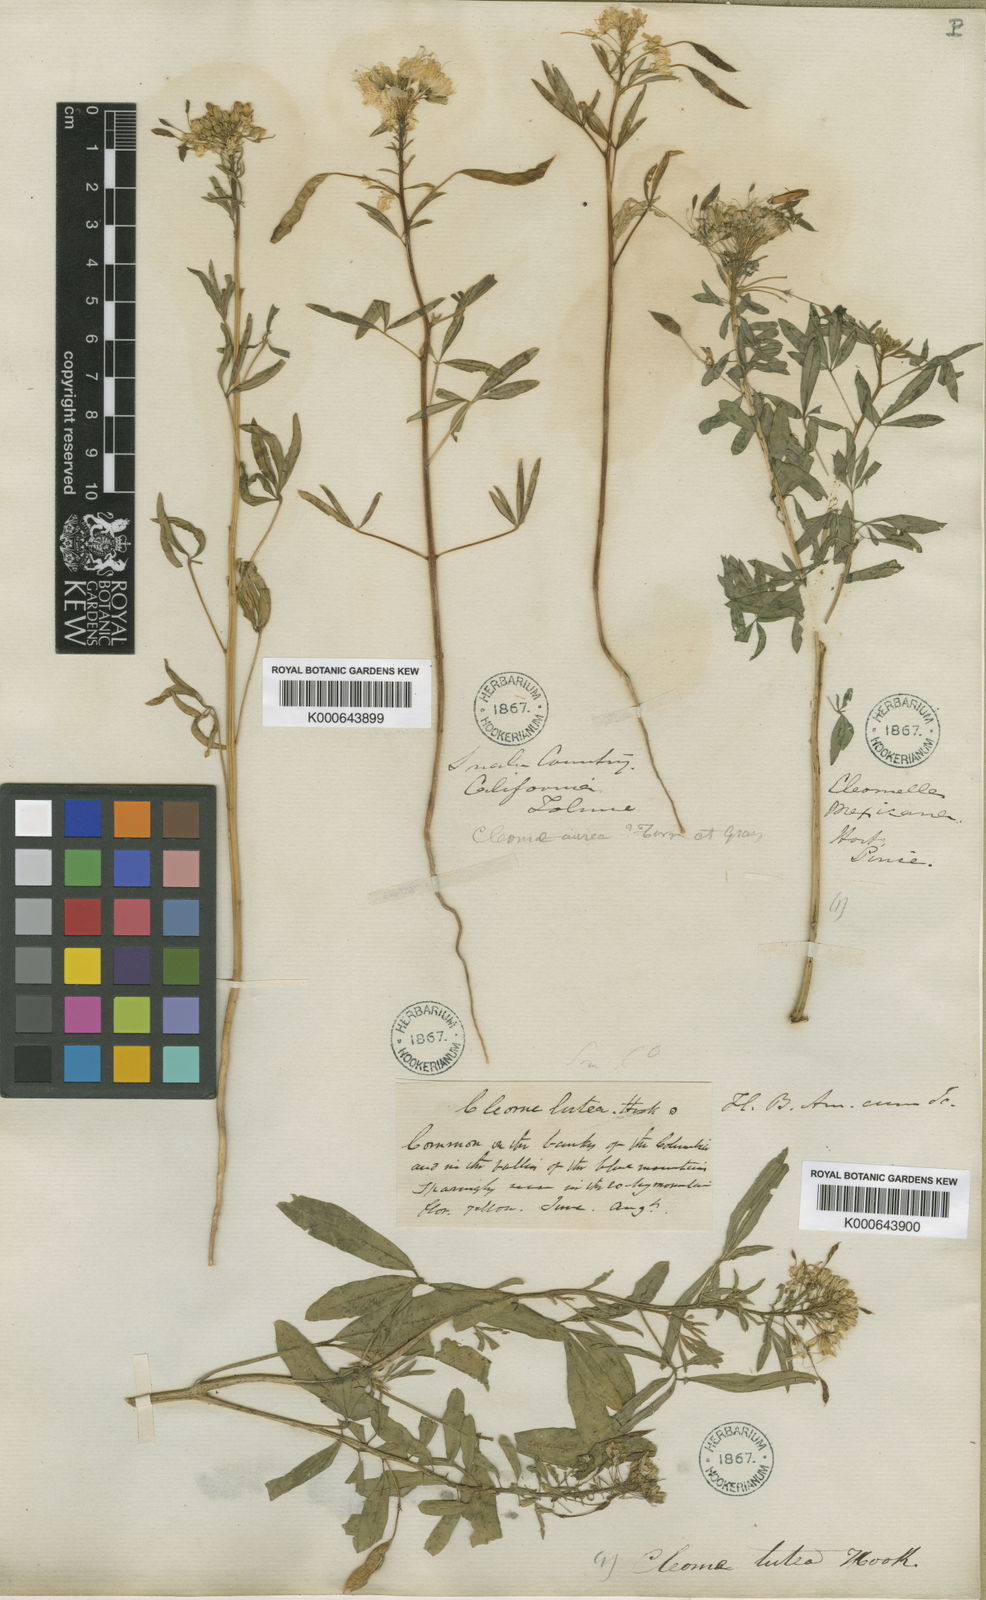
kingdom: Plantae
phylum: Tracheophyta
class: Magnoliopsida
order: Brassicales
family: Cleomaceae
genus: Cleomella
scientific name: Cleomella lutea
